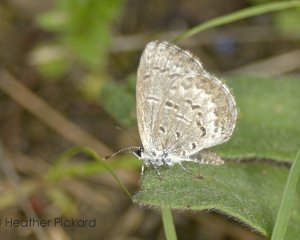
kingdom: Animalia
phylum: Arthropoda
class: Insecta
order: Lepidoptera
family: Lycaenidae
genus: Celastrina
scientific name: Celastrina lucia
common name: Northern Spring Azure
